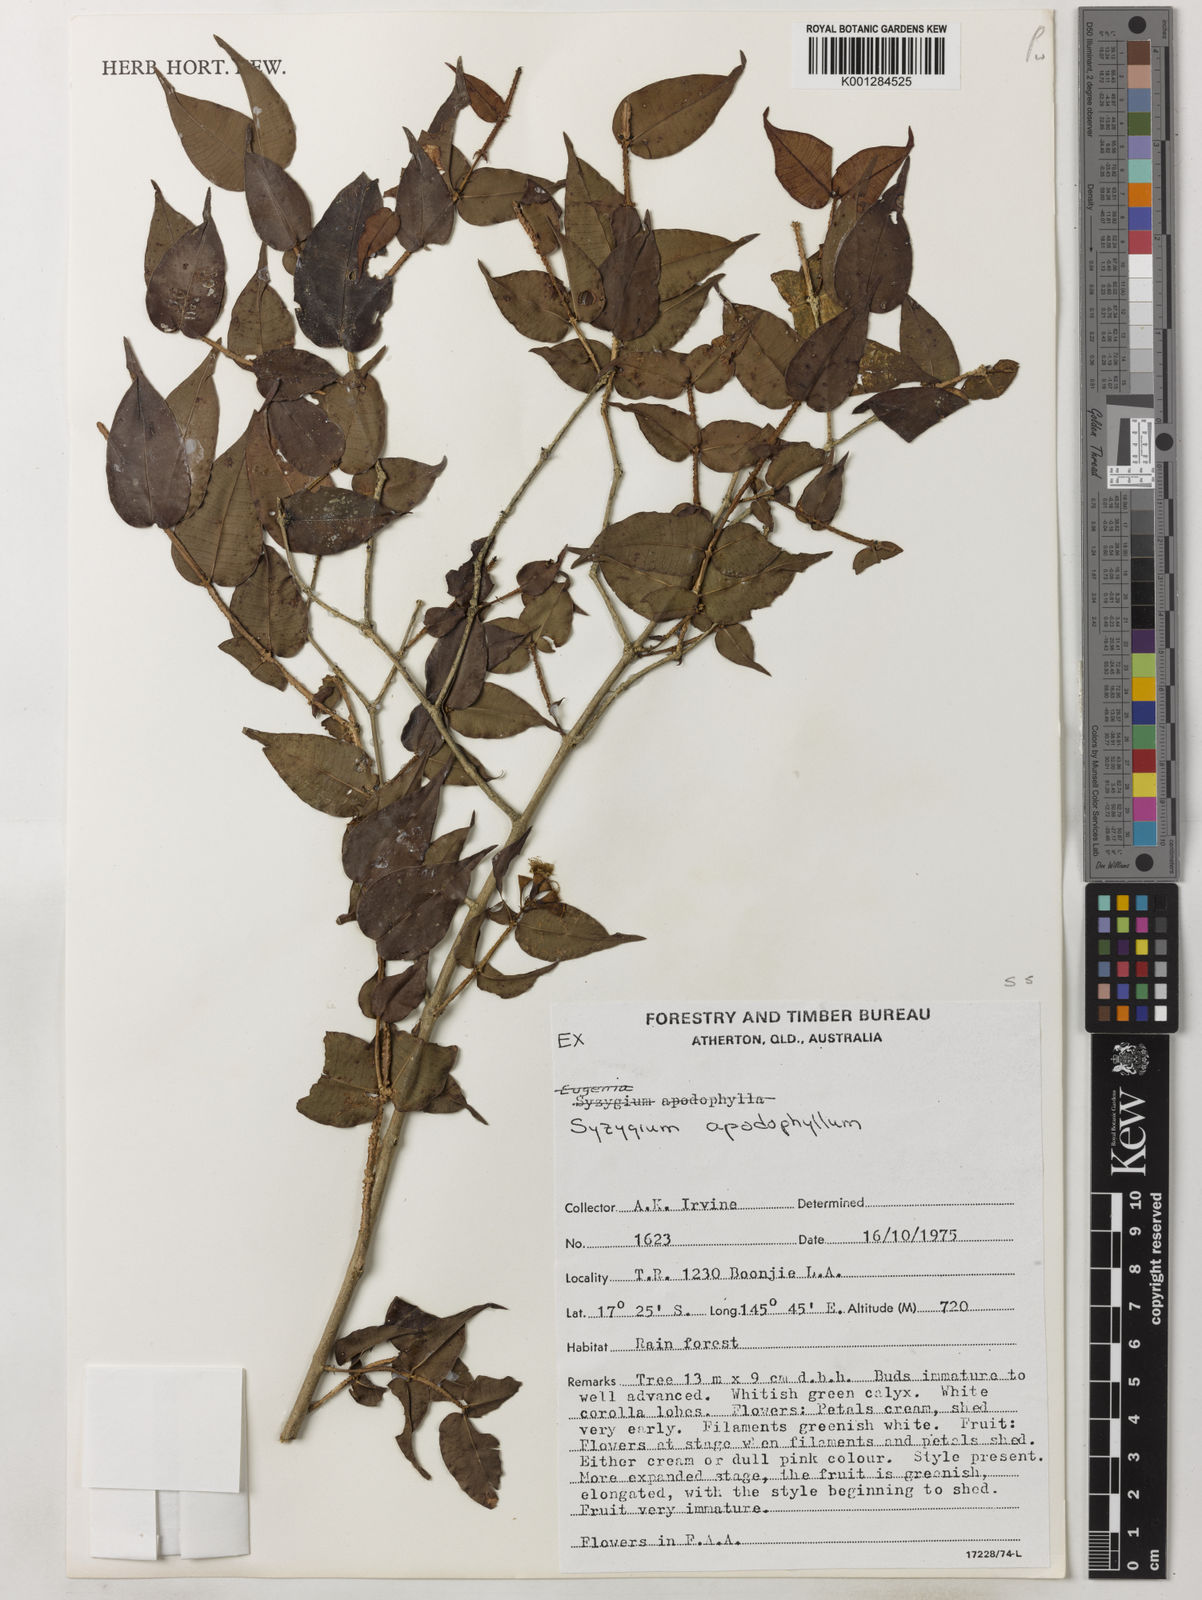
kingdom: Plantae
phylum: Tracheophyta
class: Magnoliopsida
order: Myrtales
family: Myrtaceae
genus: Syzygium
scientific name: Syzygium apodophyllum
